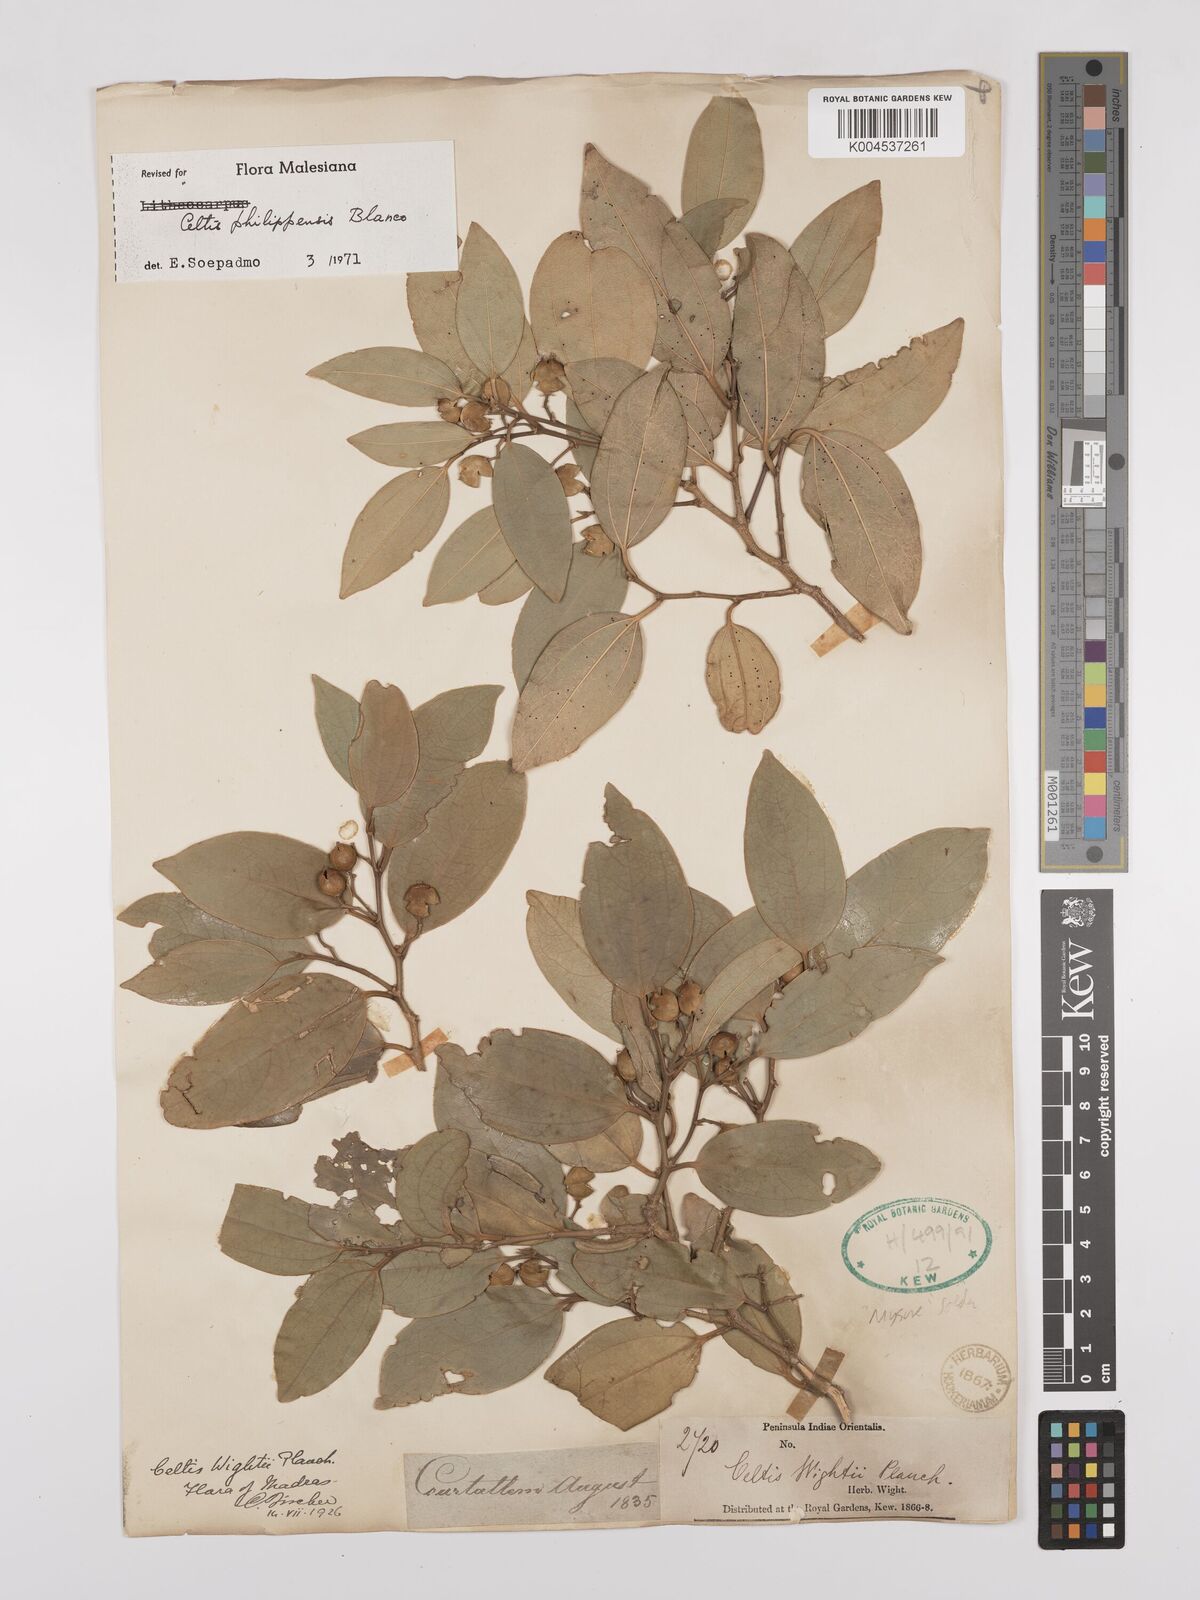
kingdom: Plantae
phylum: Tracheophyta
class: Magnoliopsida
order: Rosales
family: Cannabaceae
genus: Celtis
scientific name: Celtis philippensis
